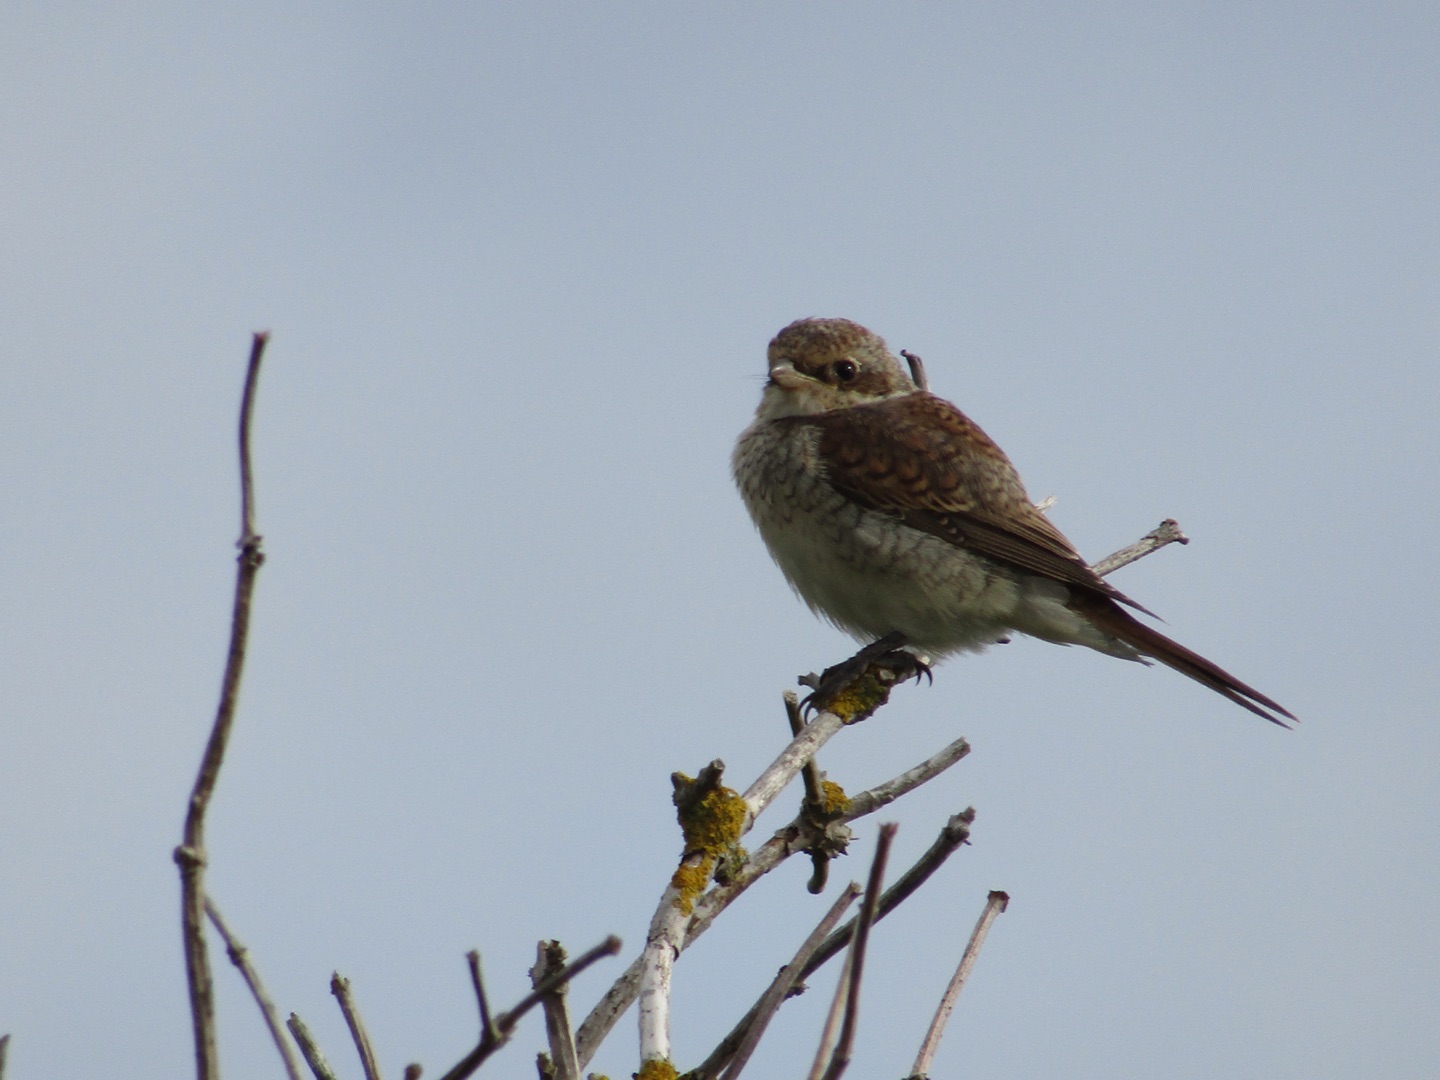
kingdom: Animalia
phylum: Chordata
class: Aves
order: Passeriformes
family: Laniidae
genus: Lanius
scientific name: Lanius collurio
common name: Rødrygget tornskade
